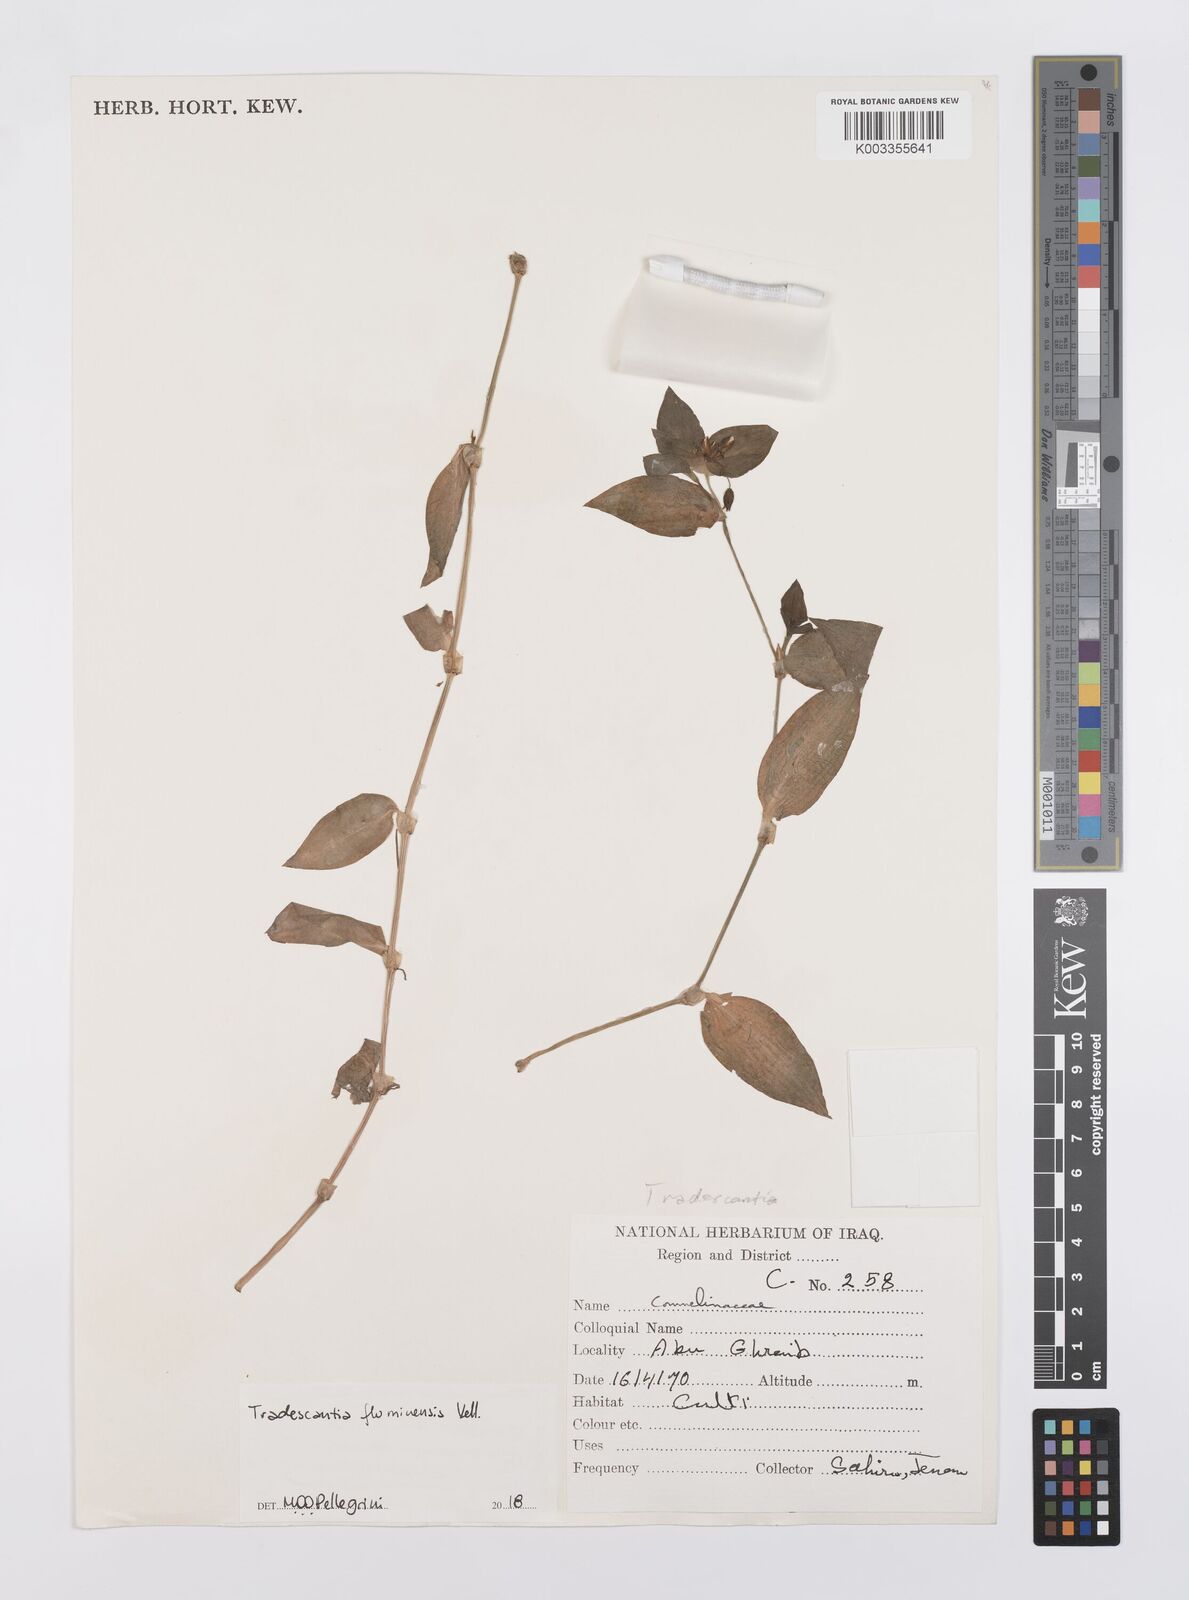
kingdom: Plantae
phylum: Tracheophyta
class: Liliopsida
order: Commelinales
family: Commelinaceae
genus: Tradescantia
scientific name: Tradescantia fluminensis
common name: Wandering-jew
